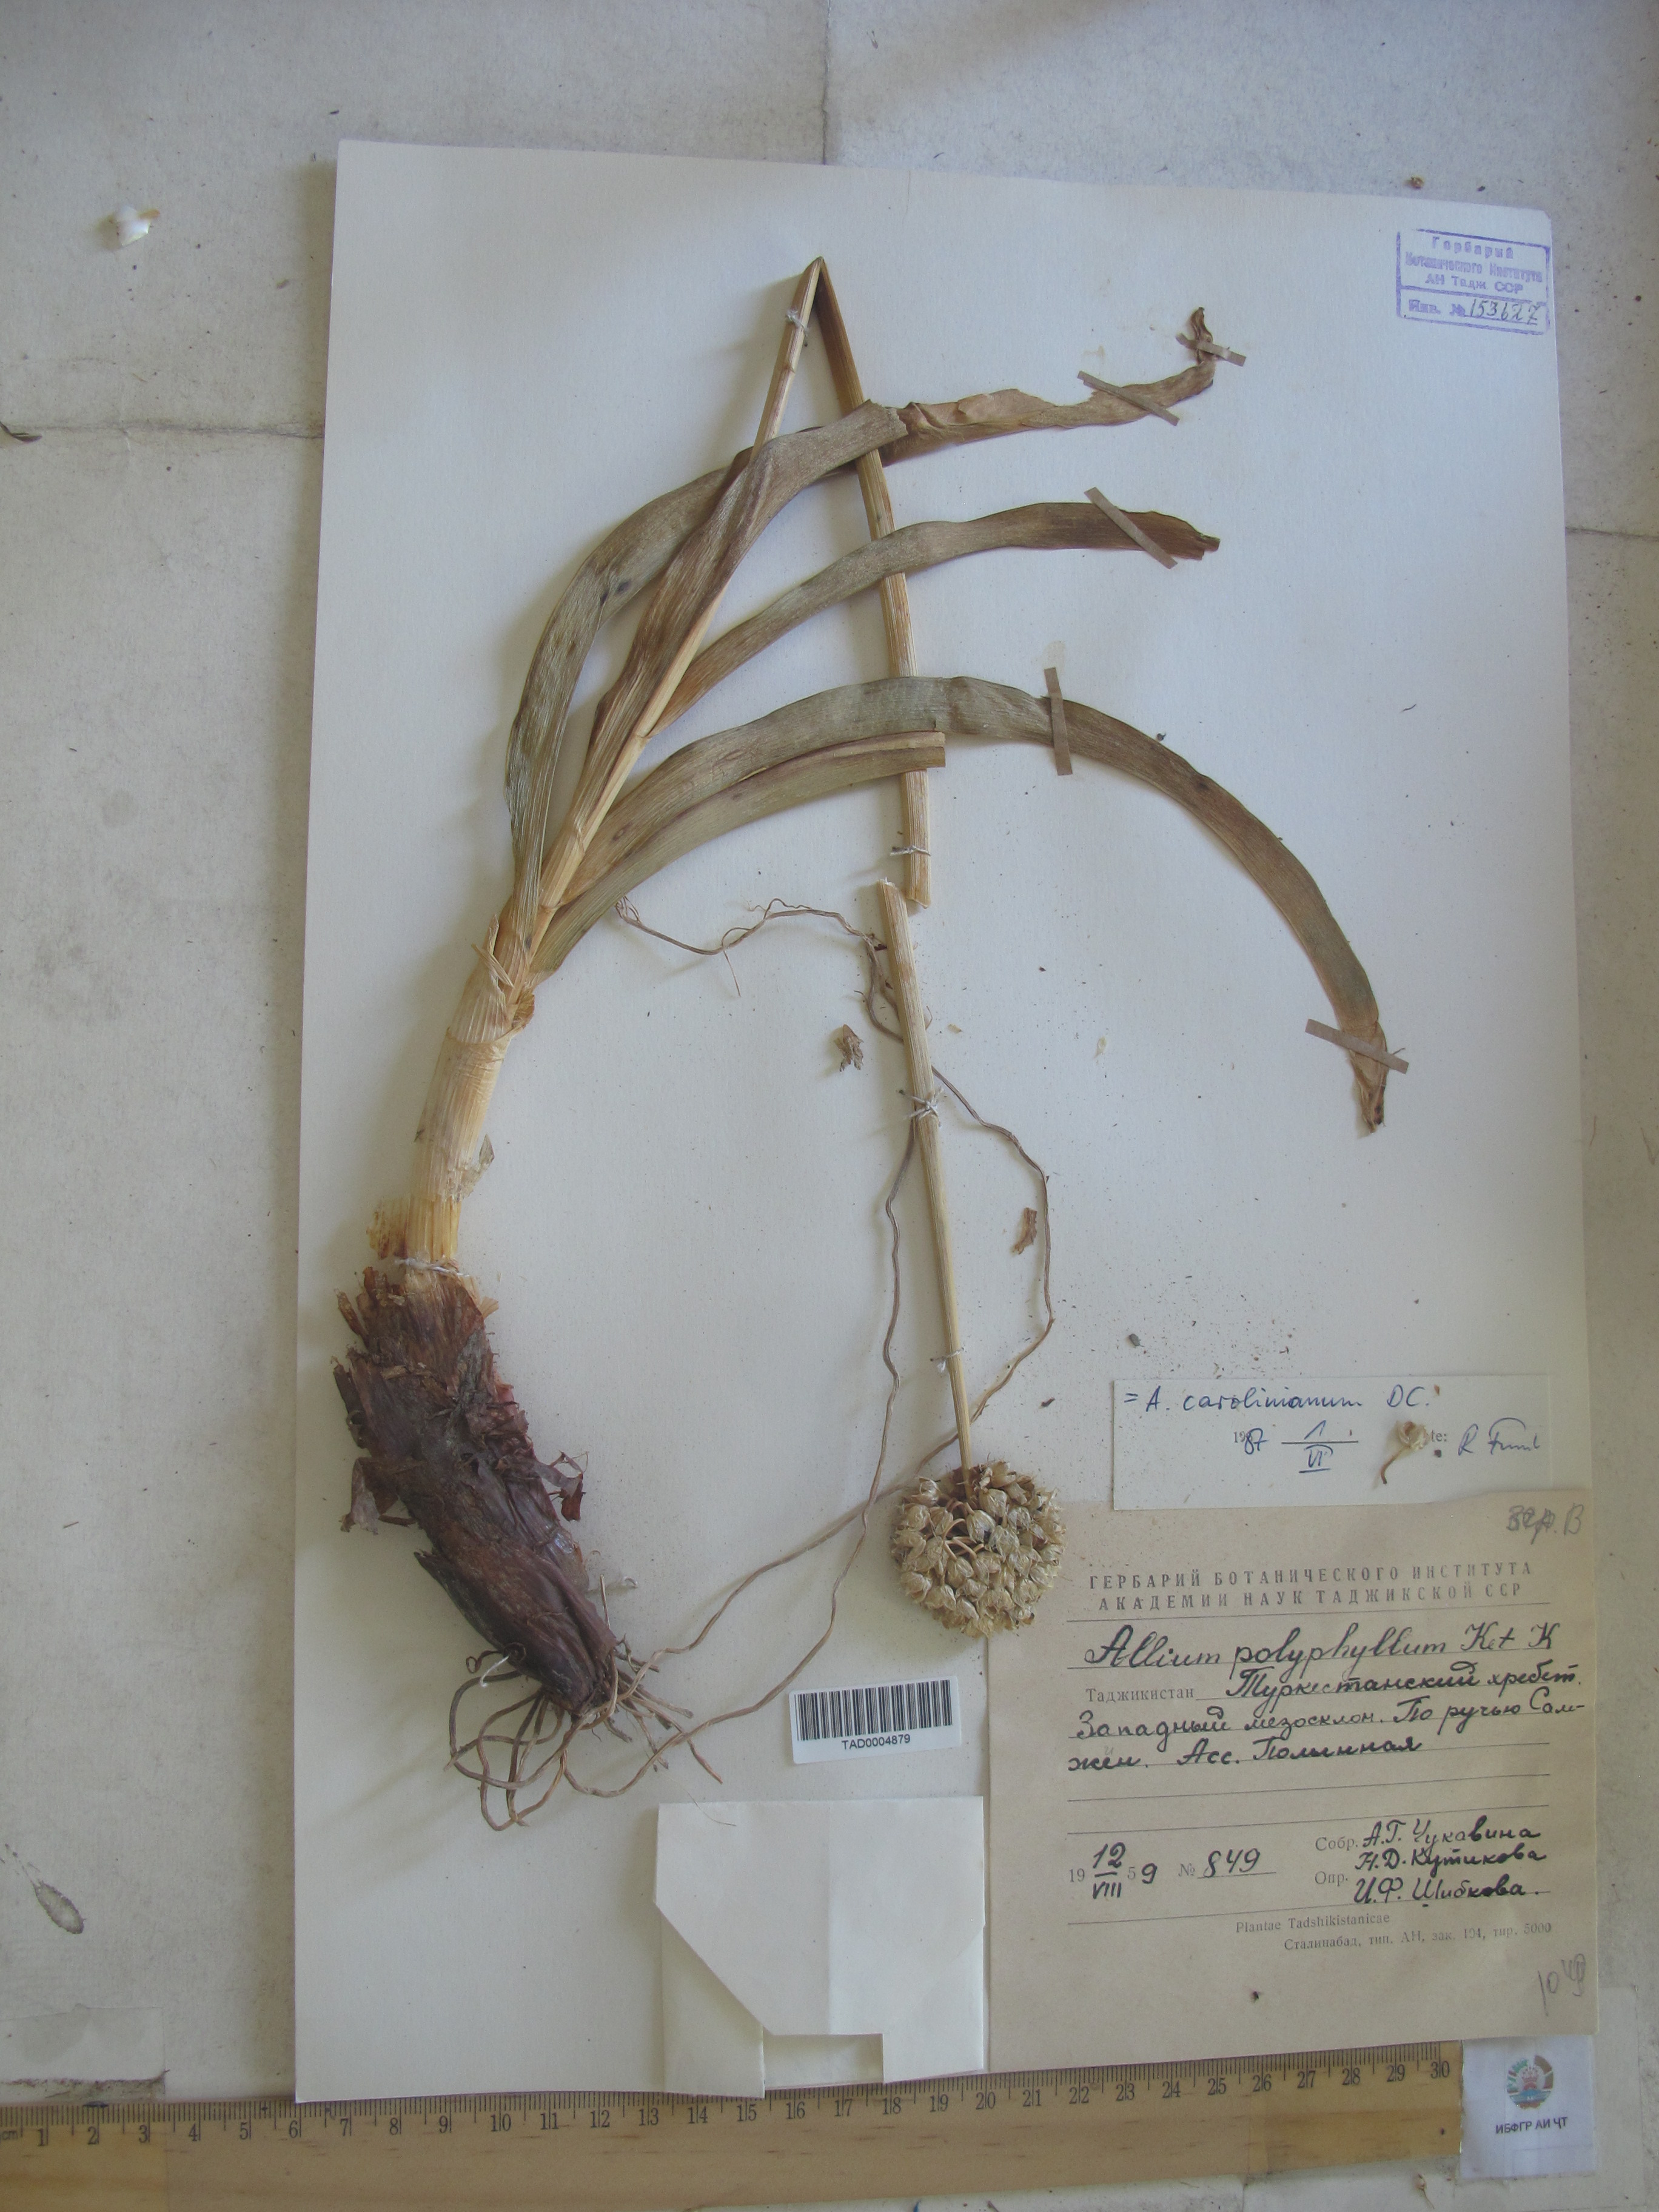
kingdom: Plantae
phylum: Tracheophyta
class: Liliopsida
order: Asparagales
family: Amaryllidaceae
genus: Allium
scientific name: Allium carolinianum
